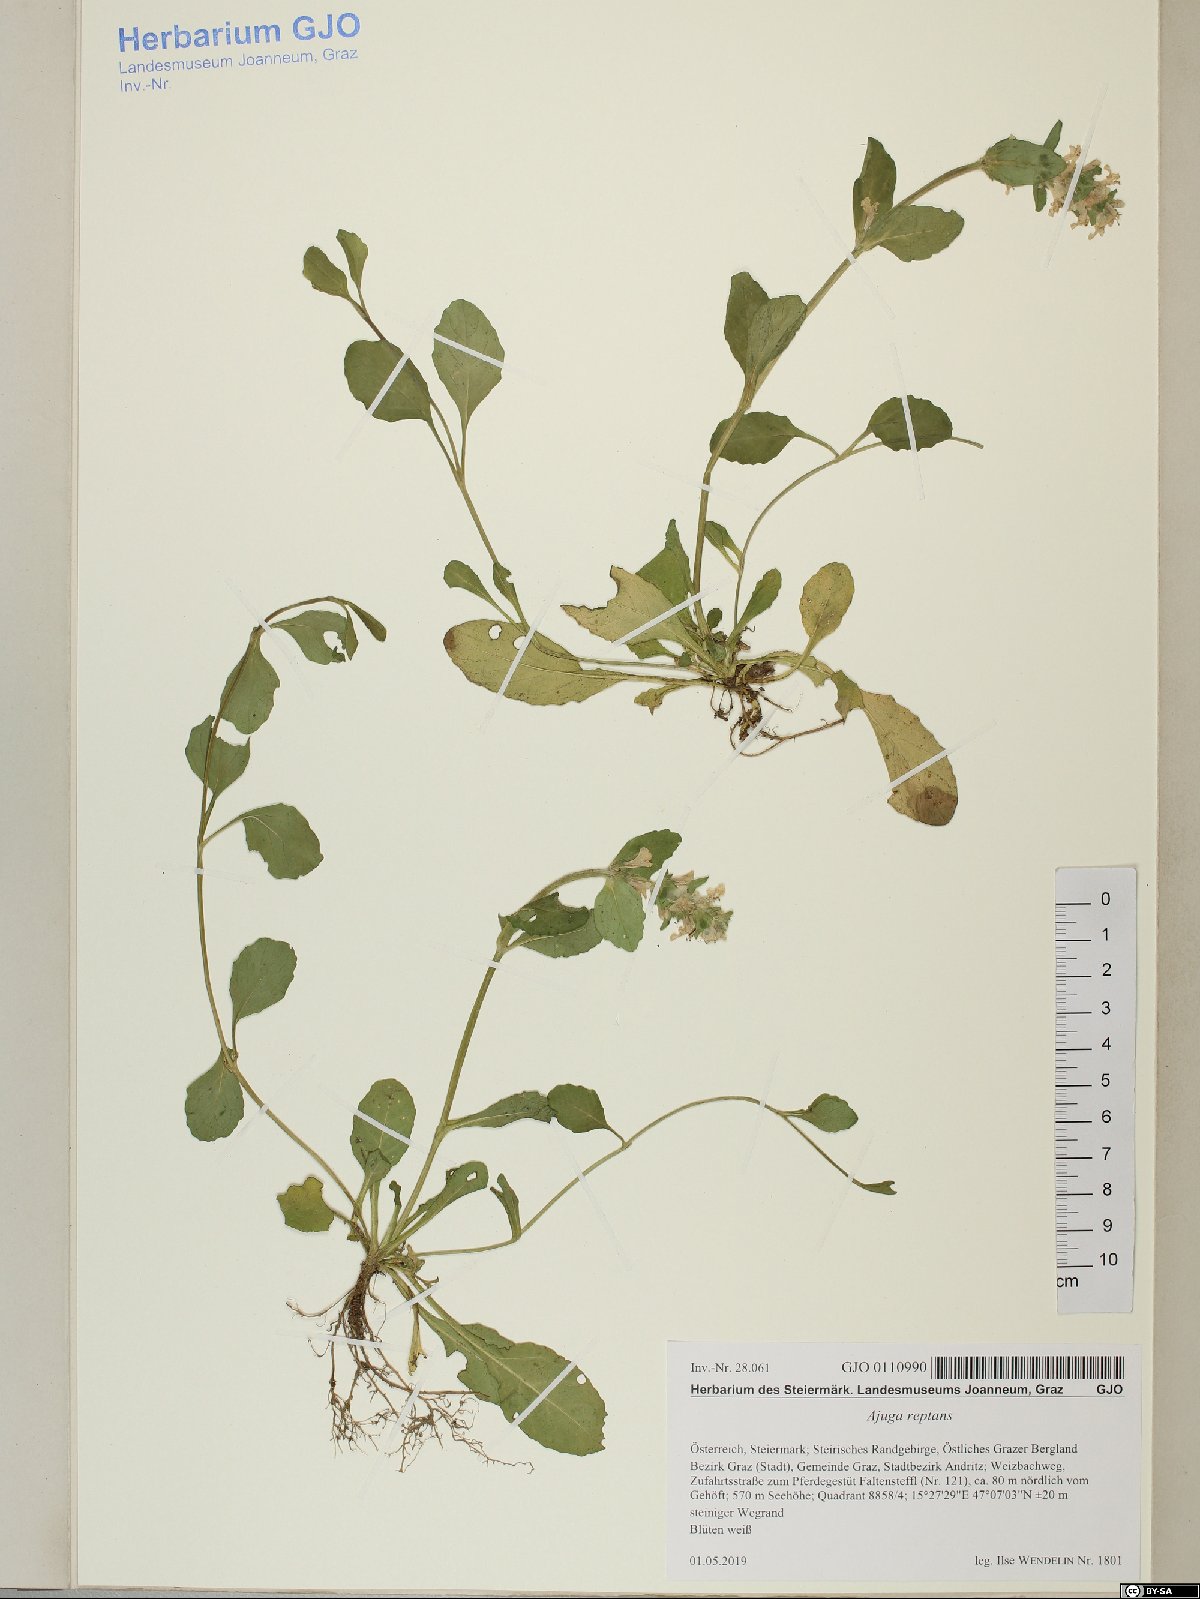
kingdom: Plantae
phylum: Tracheophyta
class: Magnoliopsida
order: Lamiales
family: Lamiaceae
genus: Ajuga
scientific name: Ajuga reptans
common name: Bugle
